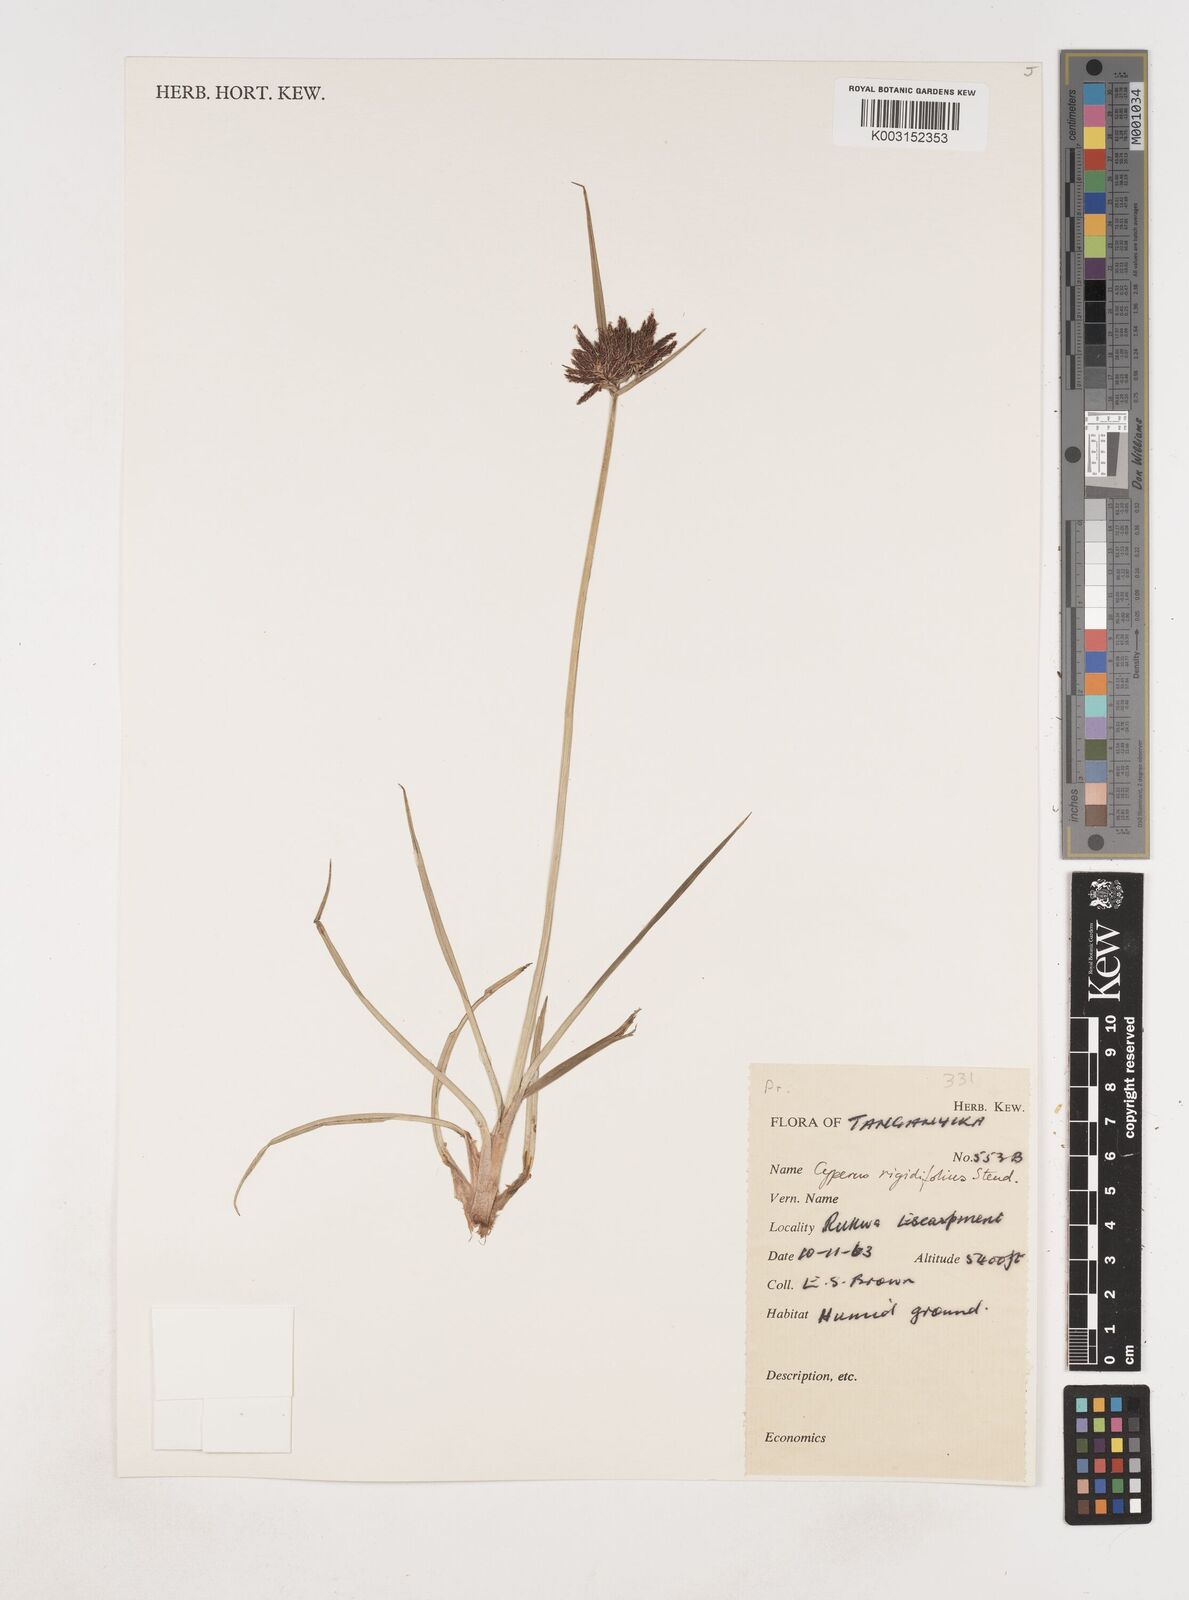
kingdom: Plantae
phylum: Tracheophyta
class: Liliopsida
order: Poales
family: Cyperaceae
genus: Cyperus
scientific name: Cyperus rigidifolius
